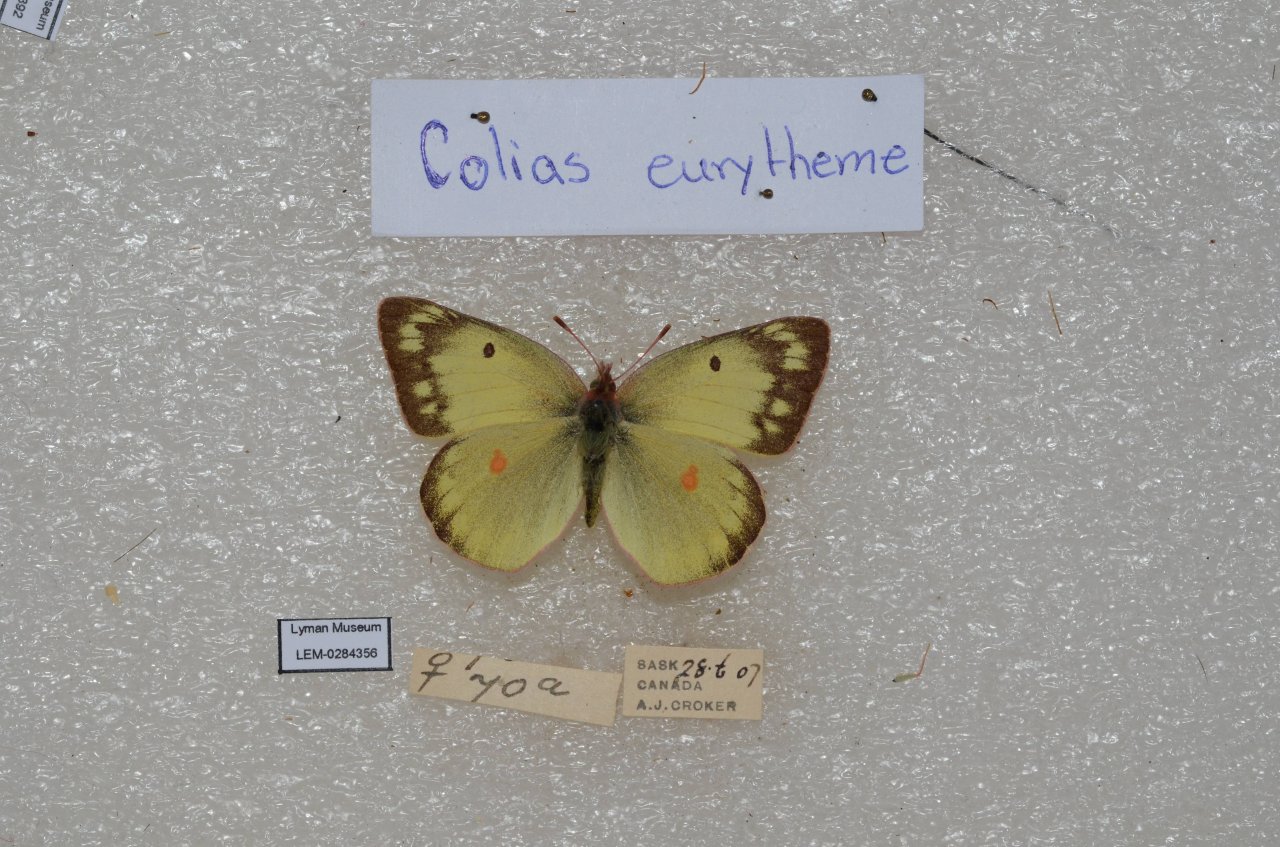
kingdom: Animalia
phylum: Arthropoda
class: Insecta
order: Lepidoptera
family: Pieridae
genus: Colias
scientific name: Colias philodice
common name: Clouded Sulphur
